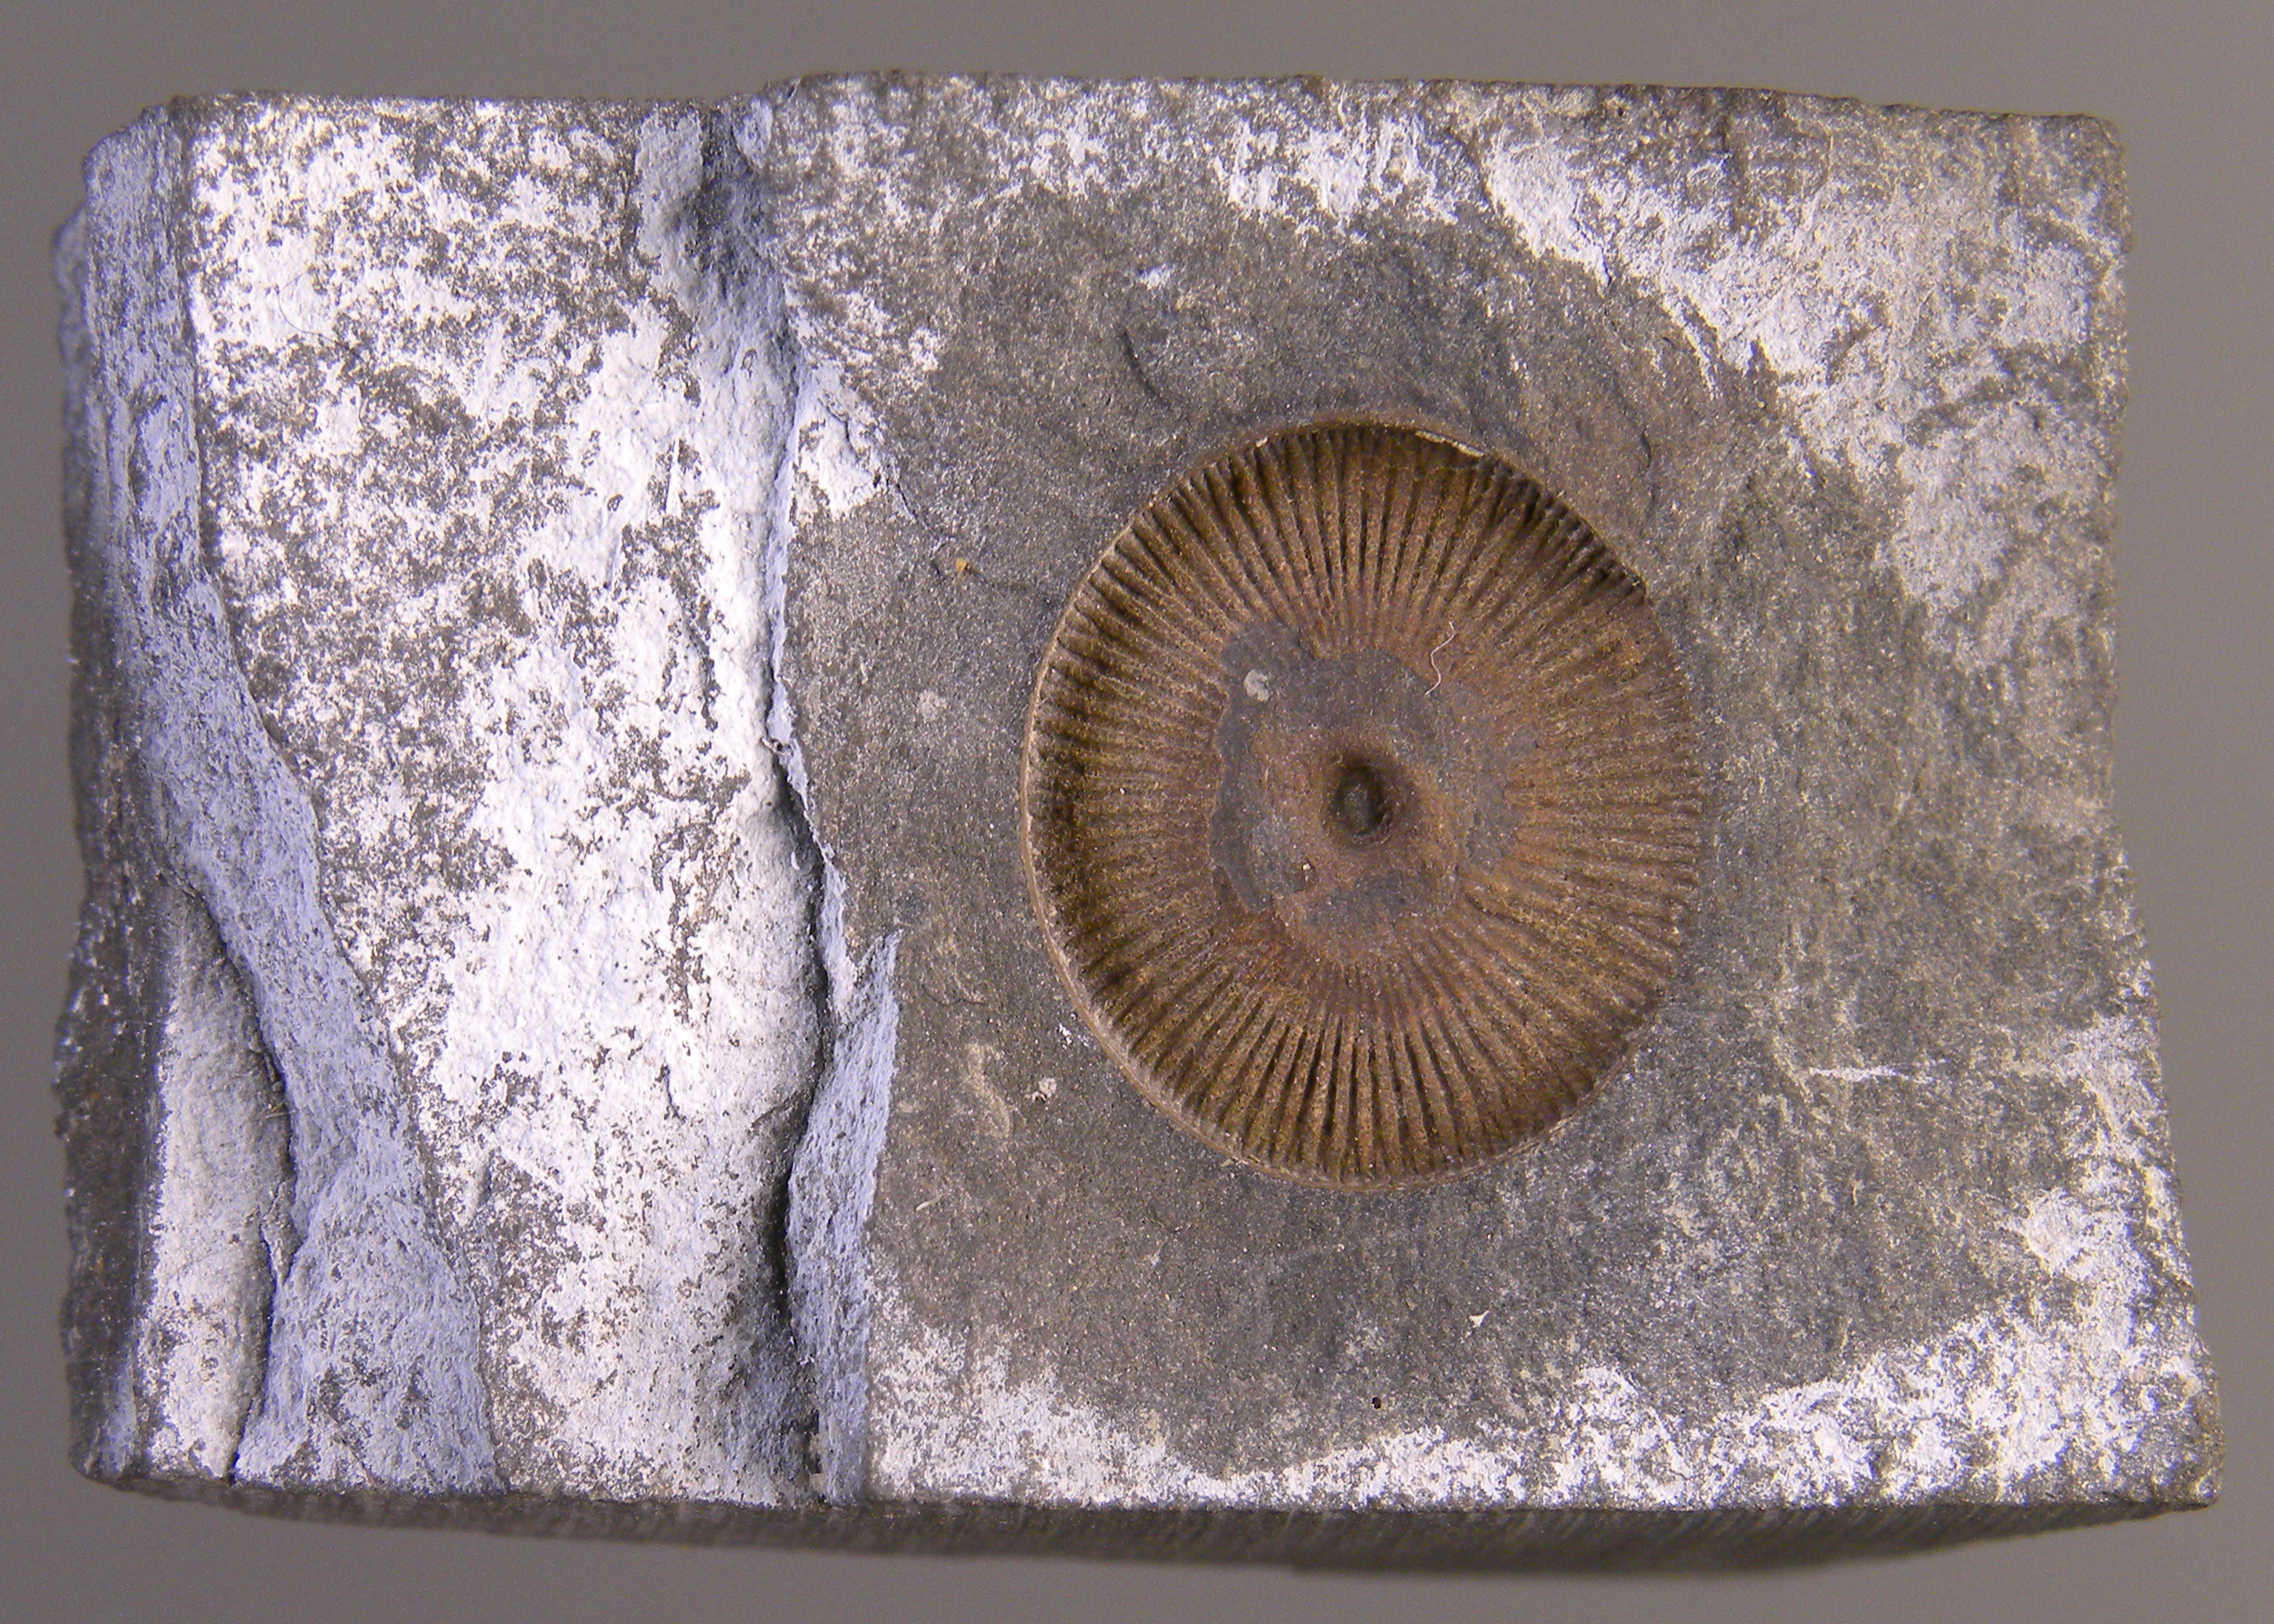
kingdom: Animalia
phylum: Echinodermata
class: Crinoidea
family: Melocrinitidae
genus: Ctenocrinus
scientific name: Ctenocrinus
